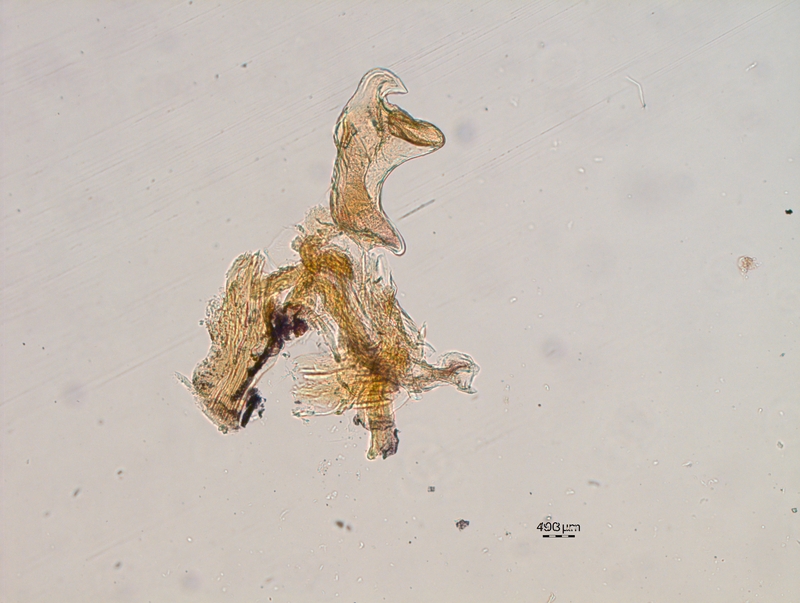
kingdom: Animalia
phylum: Arthropoda
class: Diplopoda
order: Chordeumatida
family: Craspedosomatidae
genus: Craspedosoma
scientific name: Craspedosoma alemannicum
